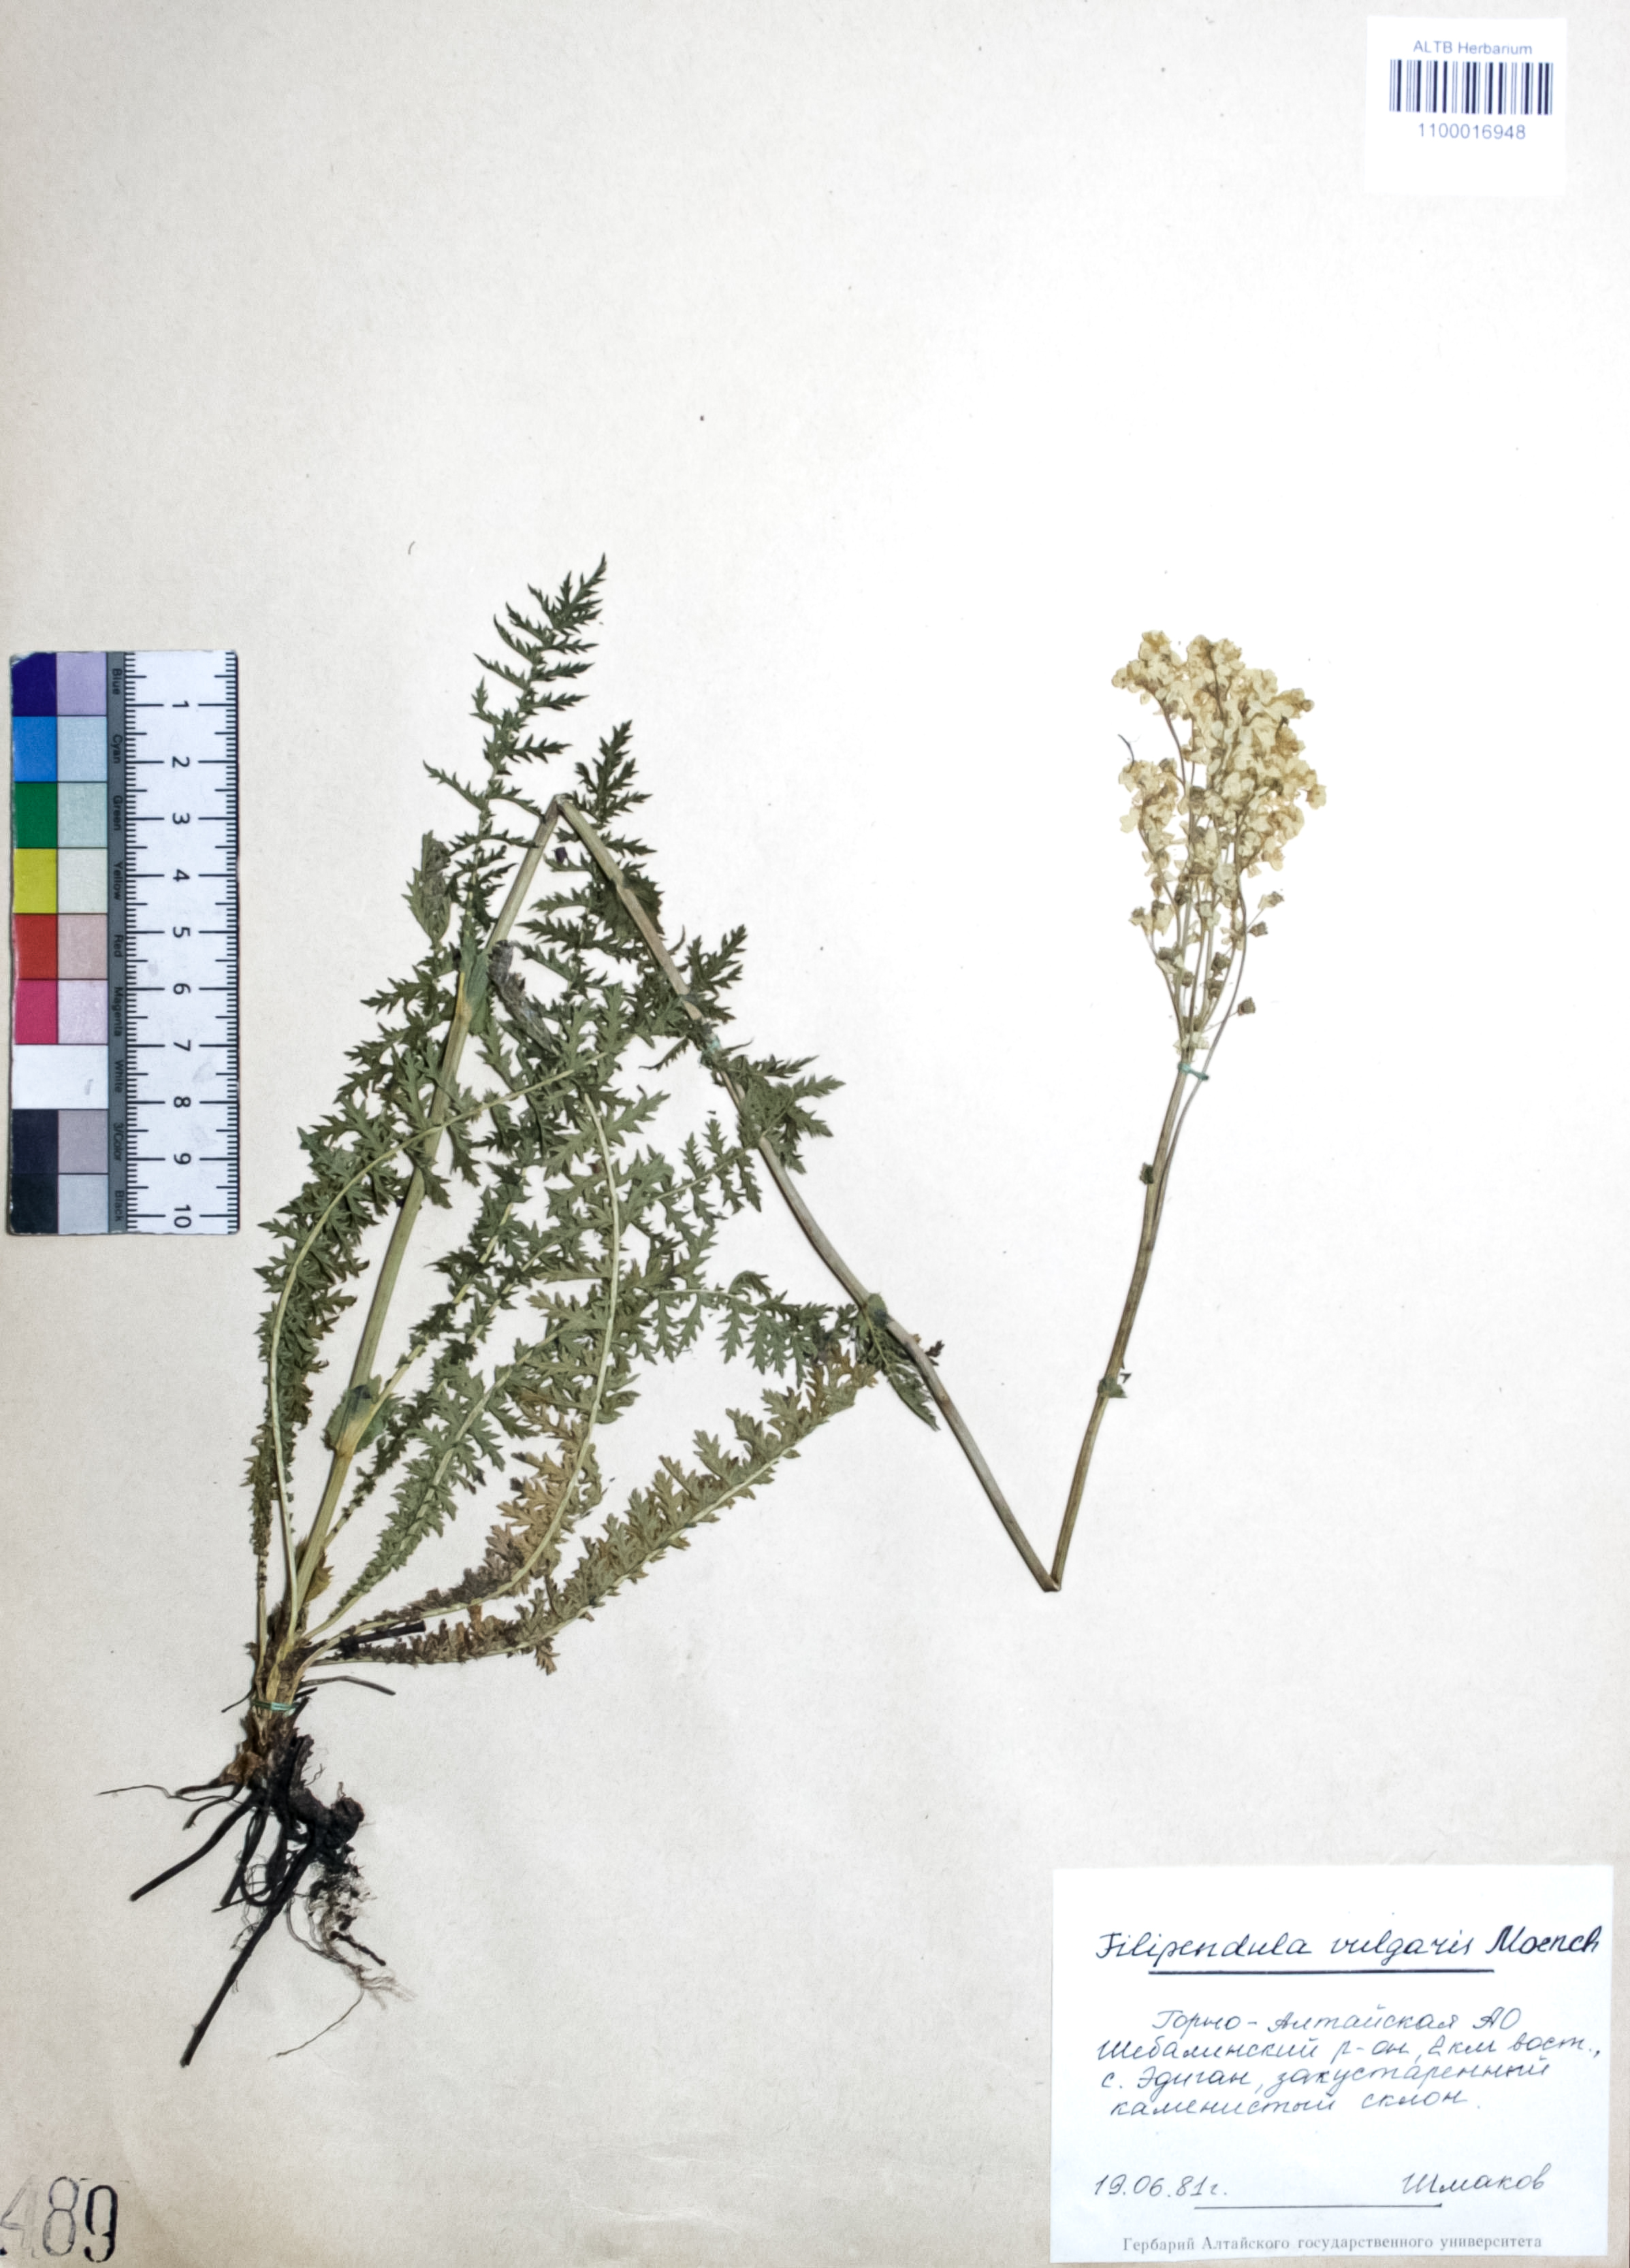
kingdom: Plantae
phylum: Tracheophyta
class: Magnoliopsida
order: Rosales
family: Rosaceae
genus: Filipendula
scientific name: Filipendula vulgaris
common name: Dropwort
